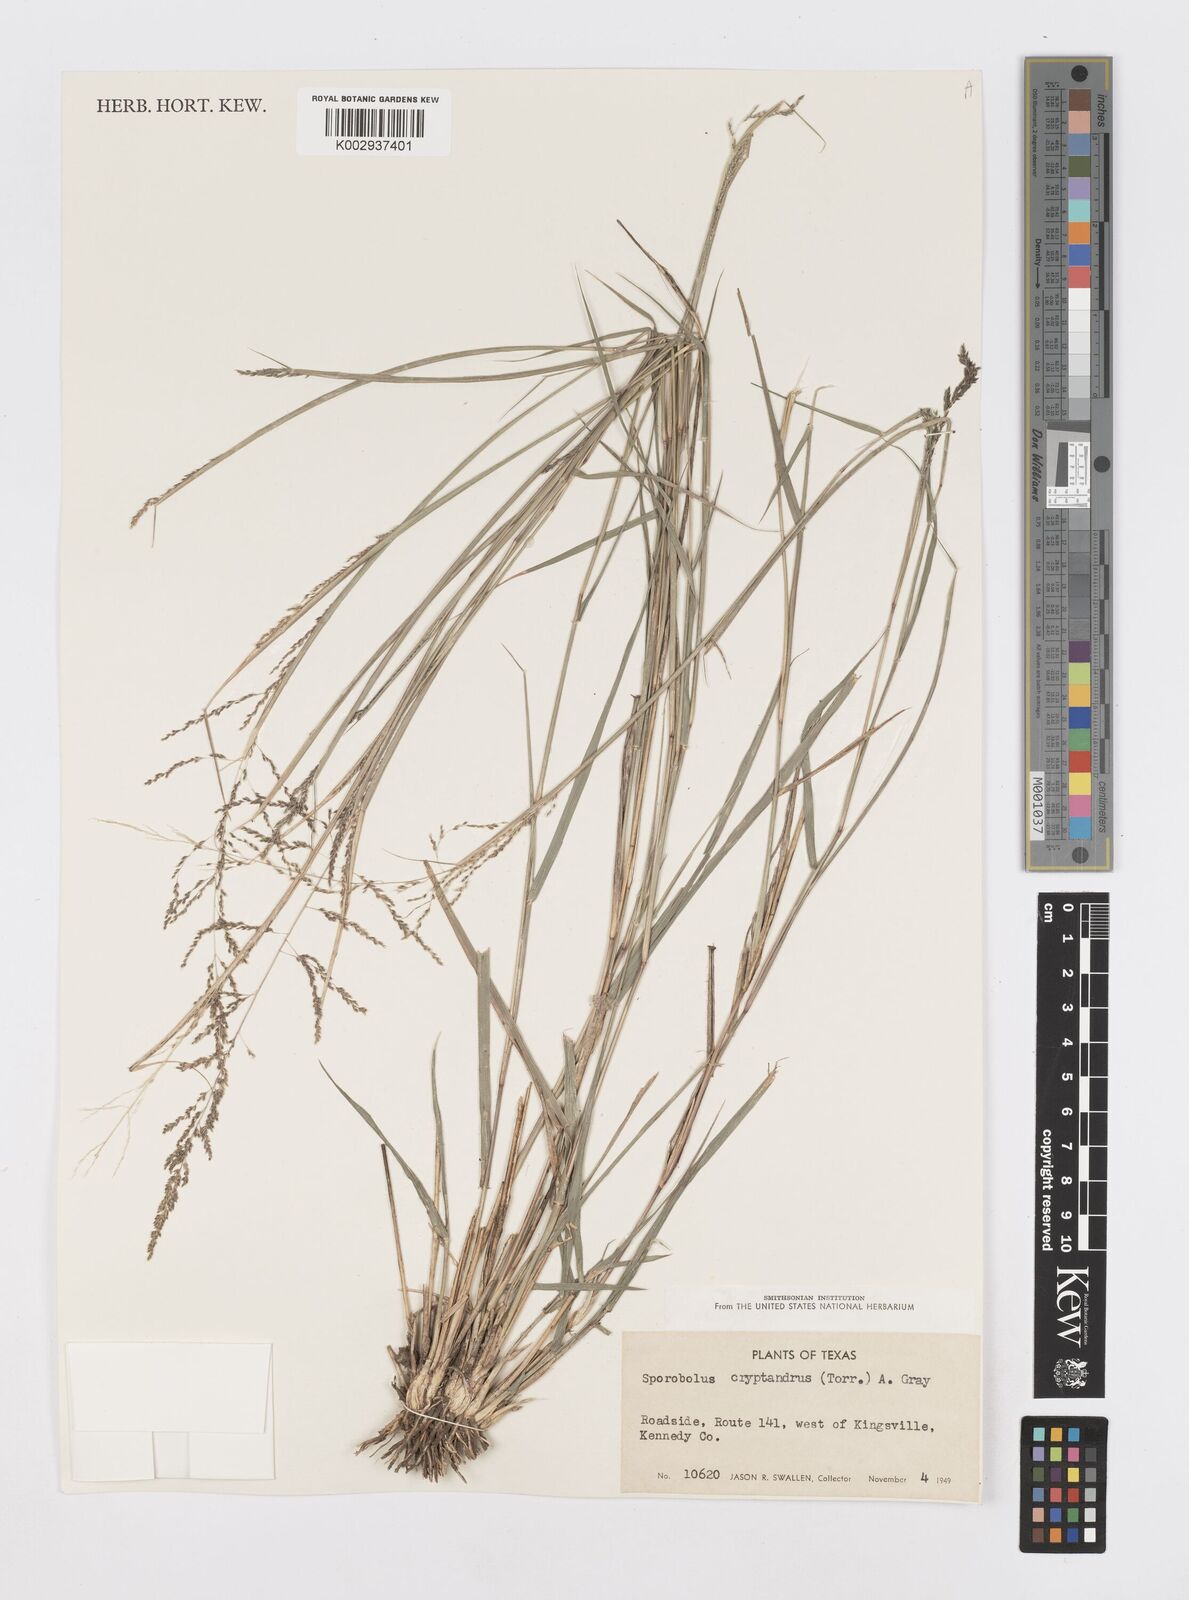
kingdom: Plantae
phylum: Tracheophyta
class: Liliopsida
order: Poales
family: Poaceae
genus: Sporobolus
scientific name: Sporobolus cryptandrus
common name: Sand dropseed
